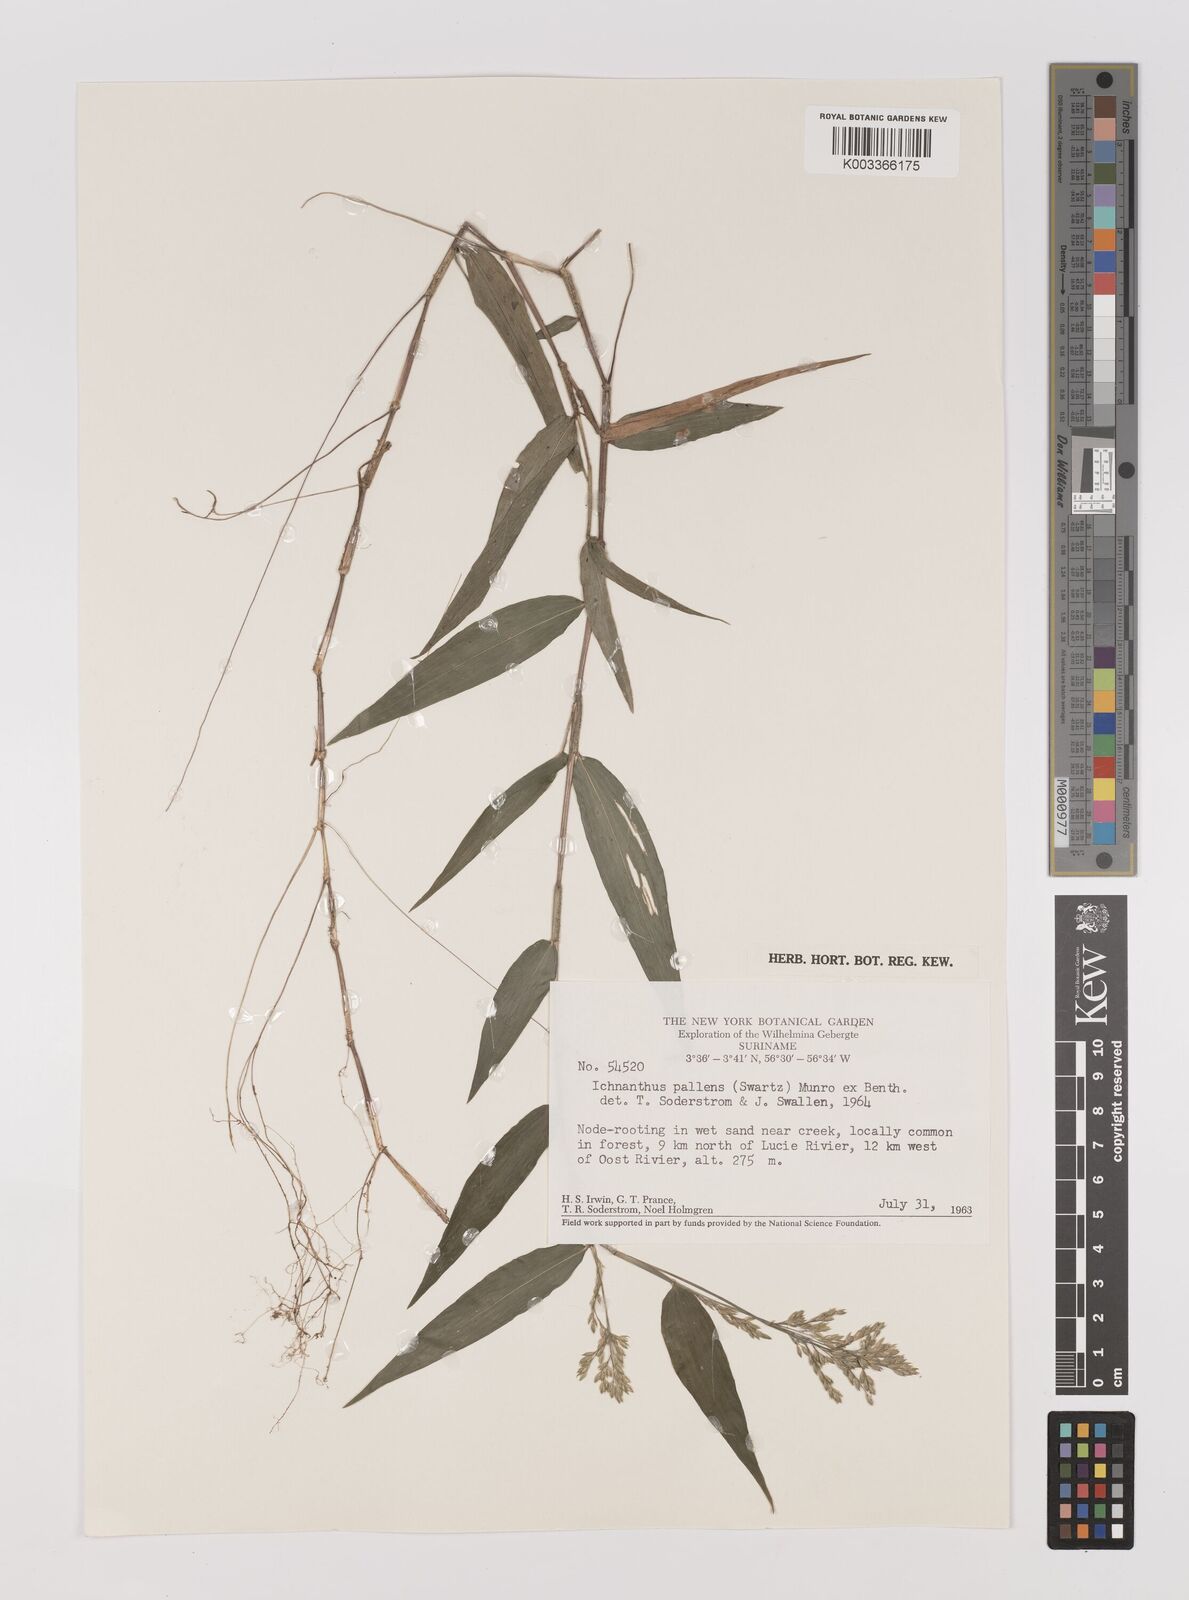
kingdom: Plantae
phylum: Tracheophyta
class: Liliopsida
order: Poales
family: Poaceae
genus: Ichnanthus
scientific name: Ichnanthus pallens
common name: Water grass
